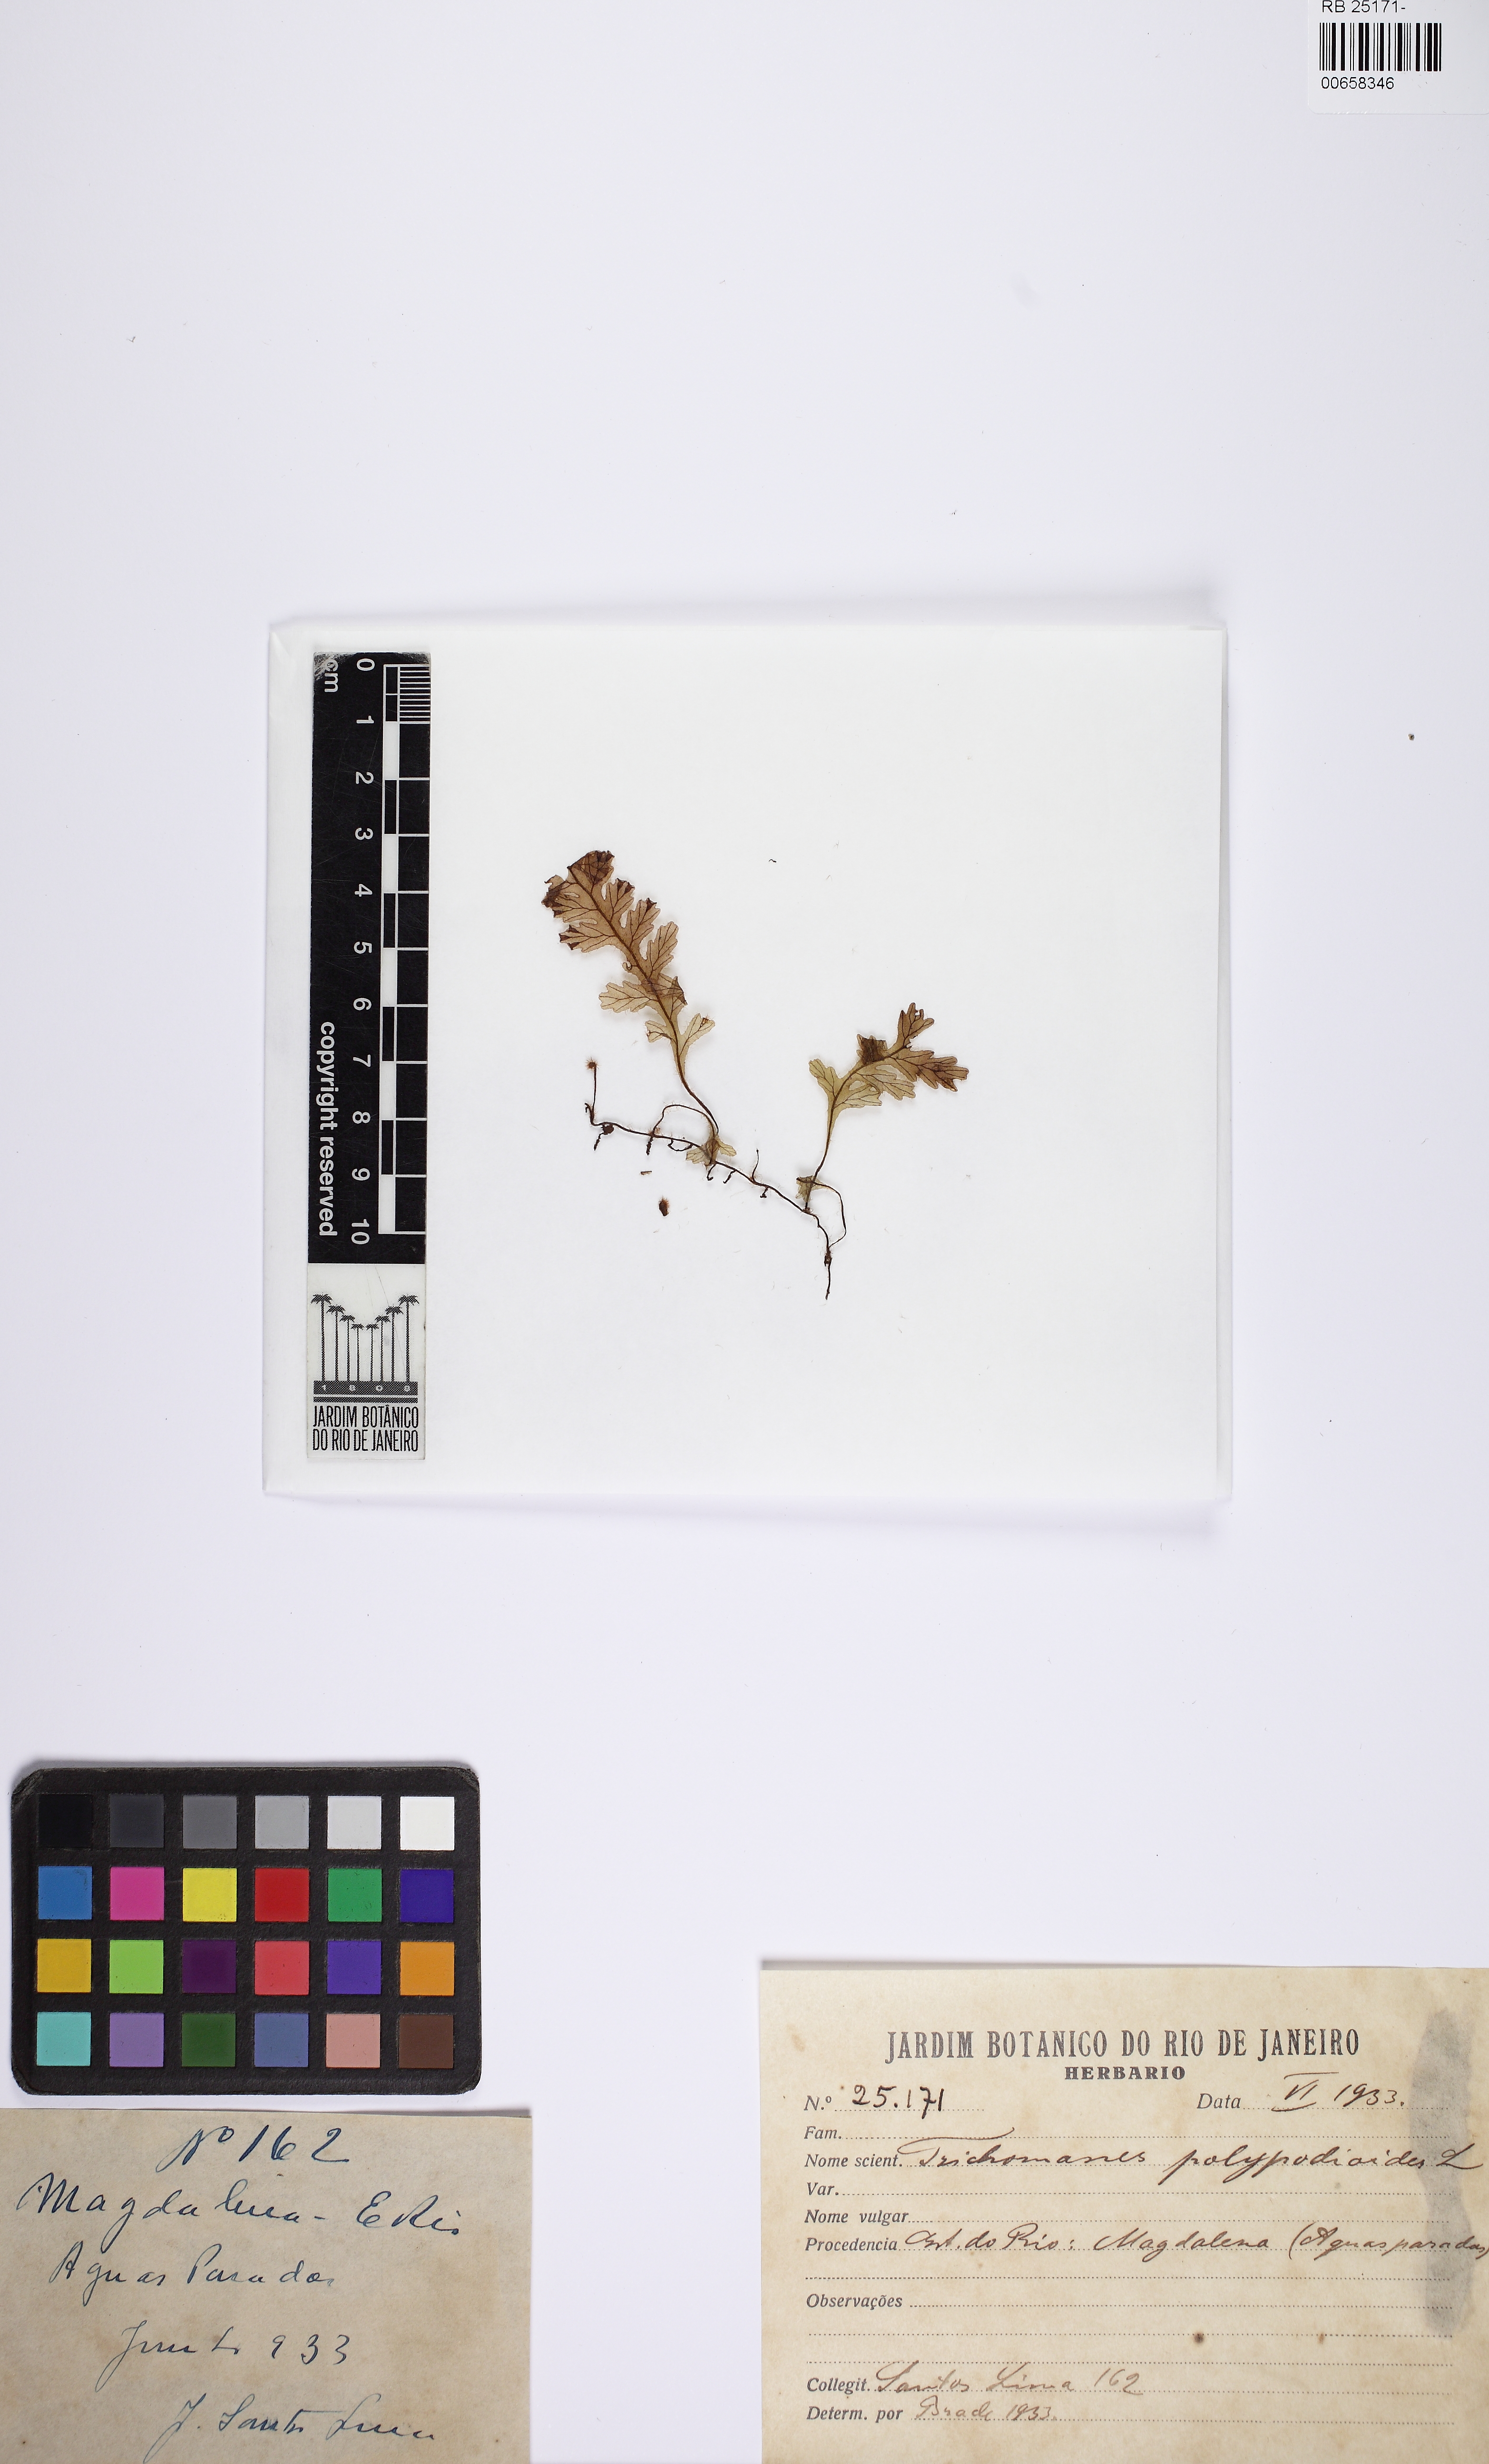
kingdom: Plantae
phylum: Tracheophyta
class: Polypodiopsida
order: Hymenophyllales
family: Hymenophyllaceae
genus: Trichomanes
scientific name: Trichomanes polypodioides
